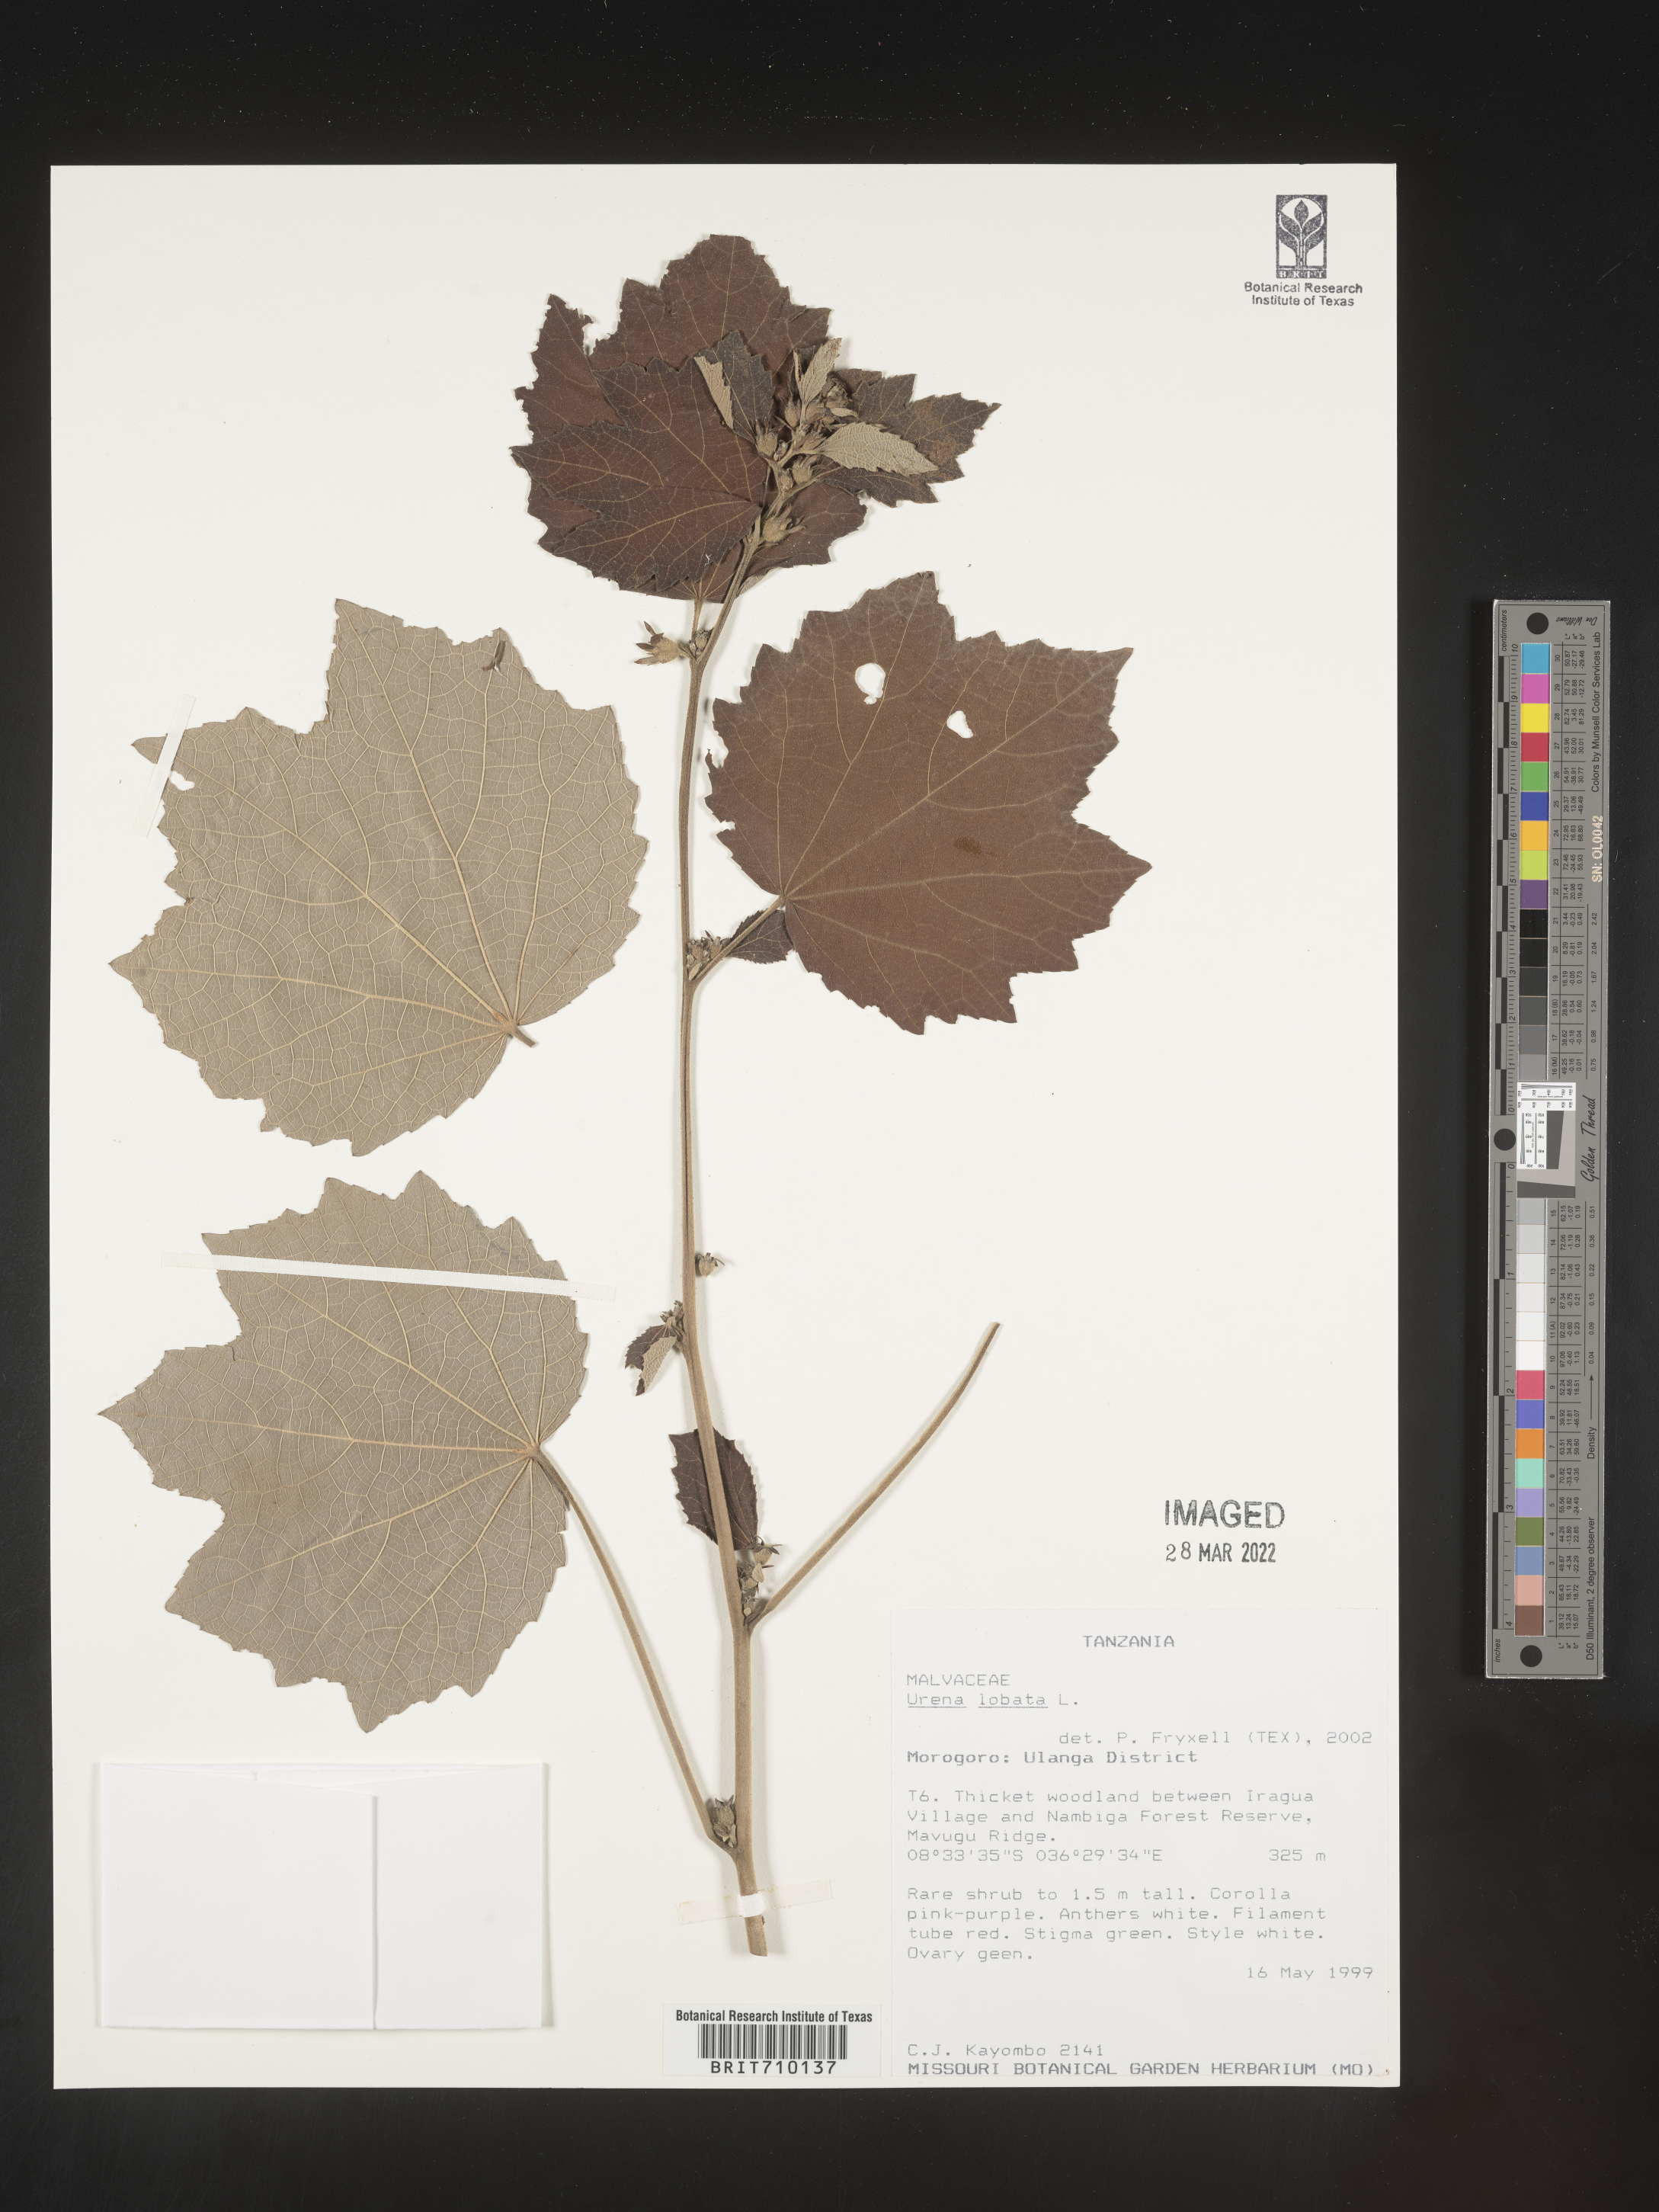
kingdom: Plantae
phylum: Tracheophyta
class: Magnoliopsida
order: Malvales
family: Malvaceae
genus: Urena
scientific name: Urena
